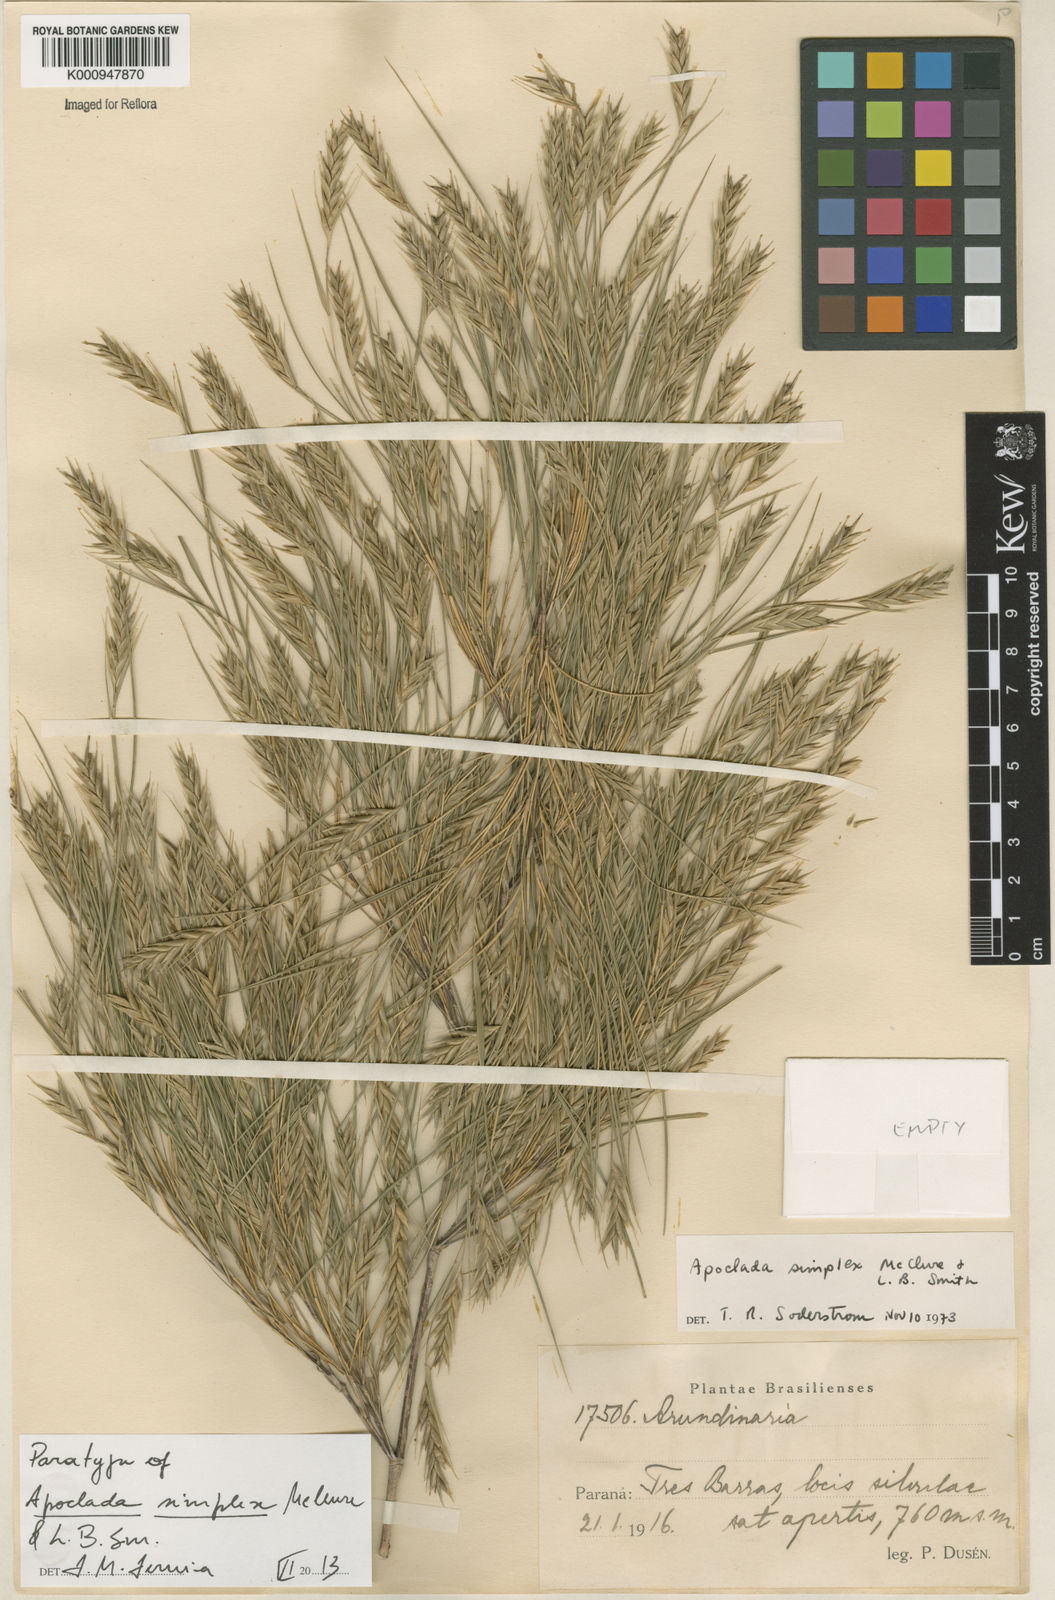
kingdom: Plantae
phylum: Tracheophyta
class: Liliopsida
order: Poales
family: Poaceae
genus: Apoclada
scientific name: Apoclada simplex
